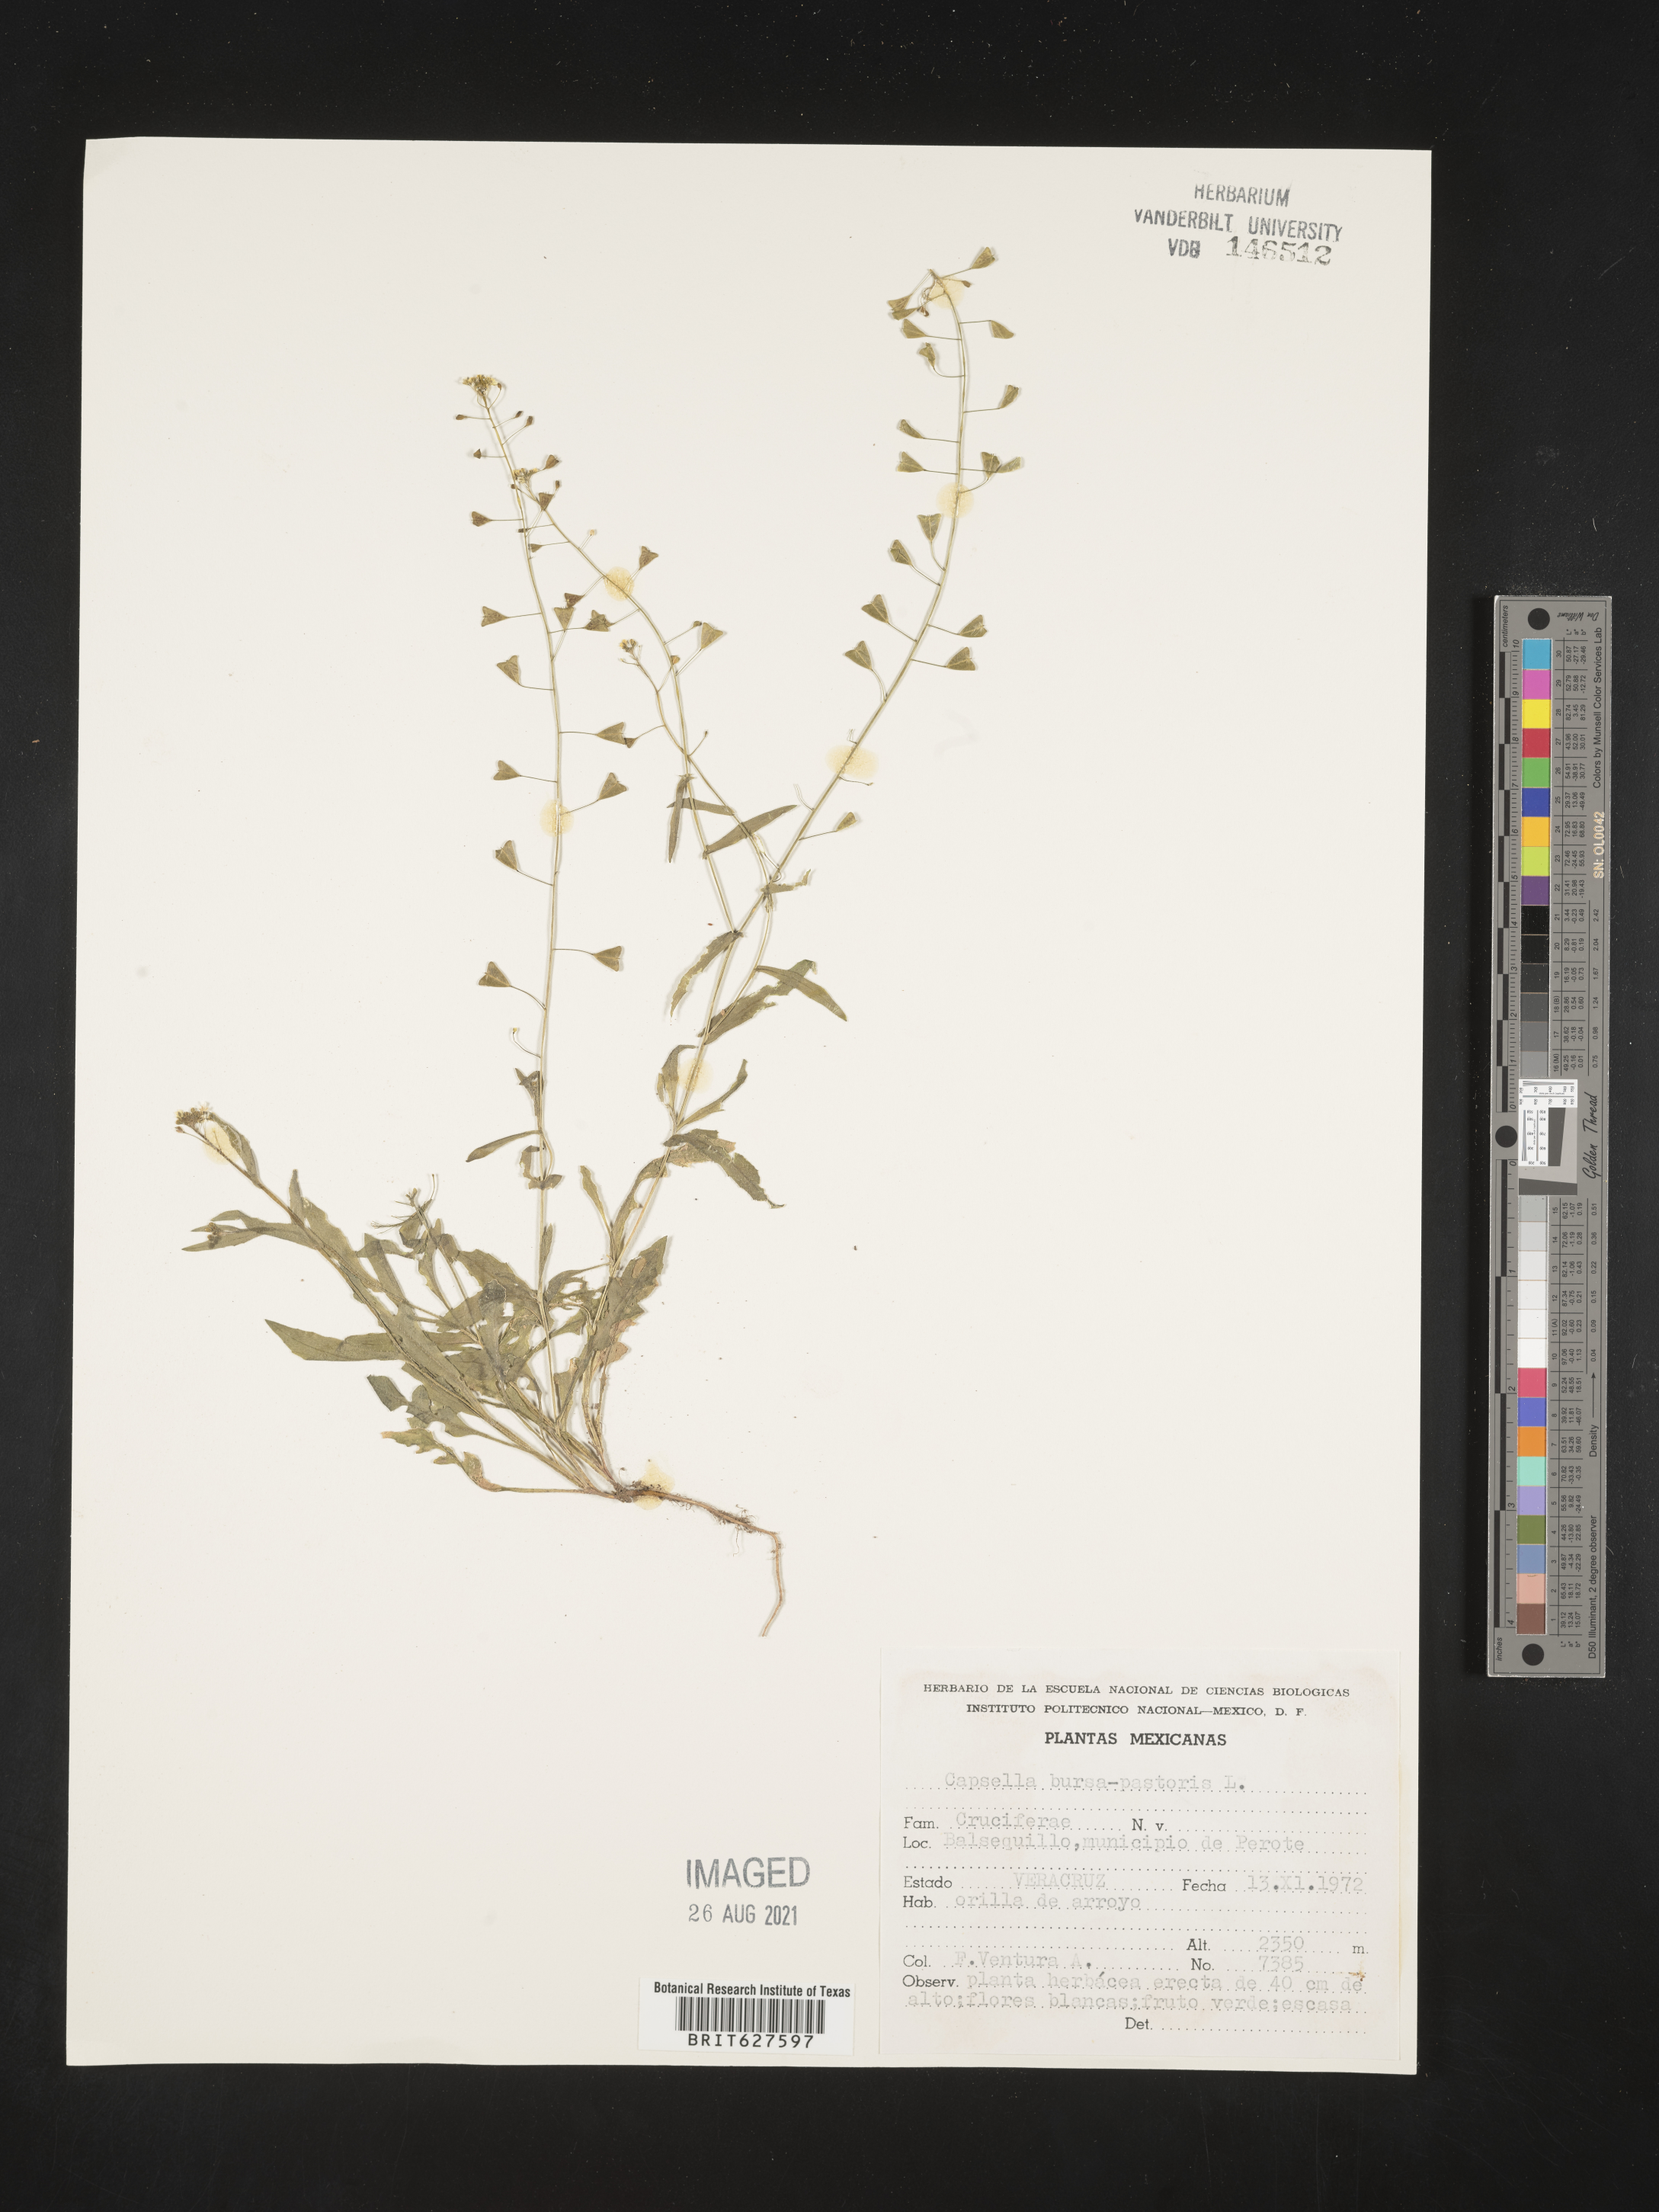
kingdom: Plantae
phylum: Tracheophyta
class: Magnoliopsida
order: Brassicales
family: Brassicaceae
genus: Capsella
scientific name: Capsella
